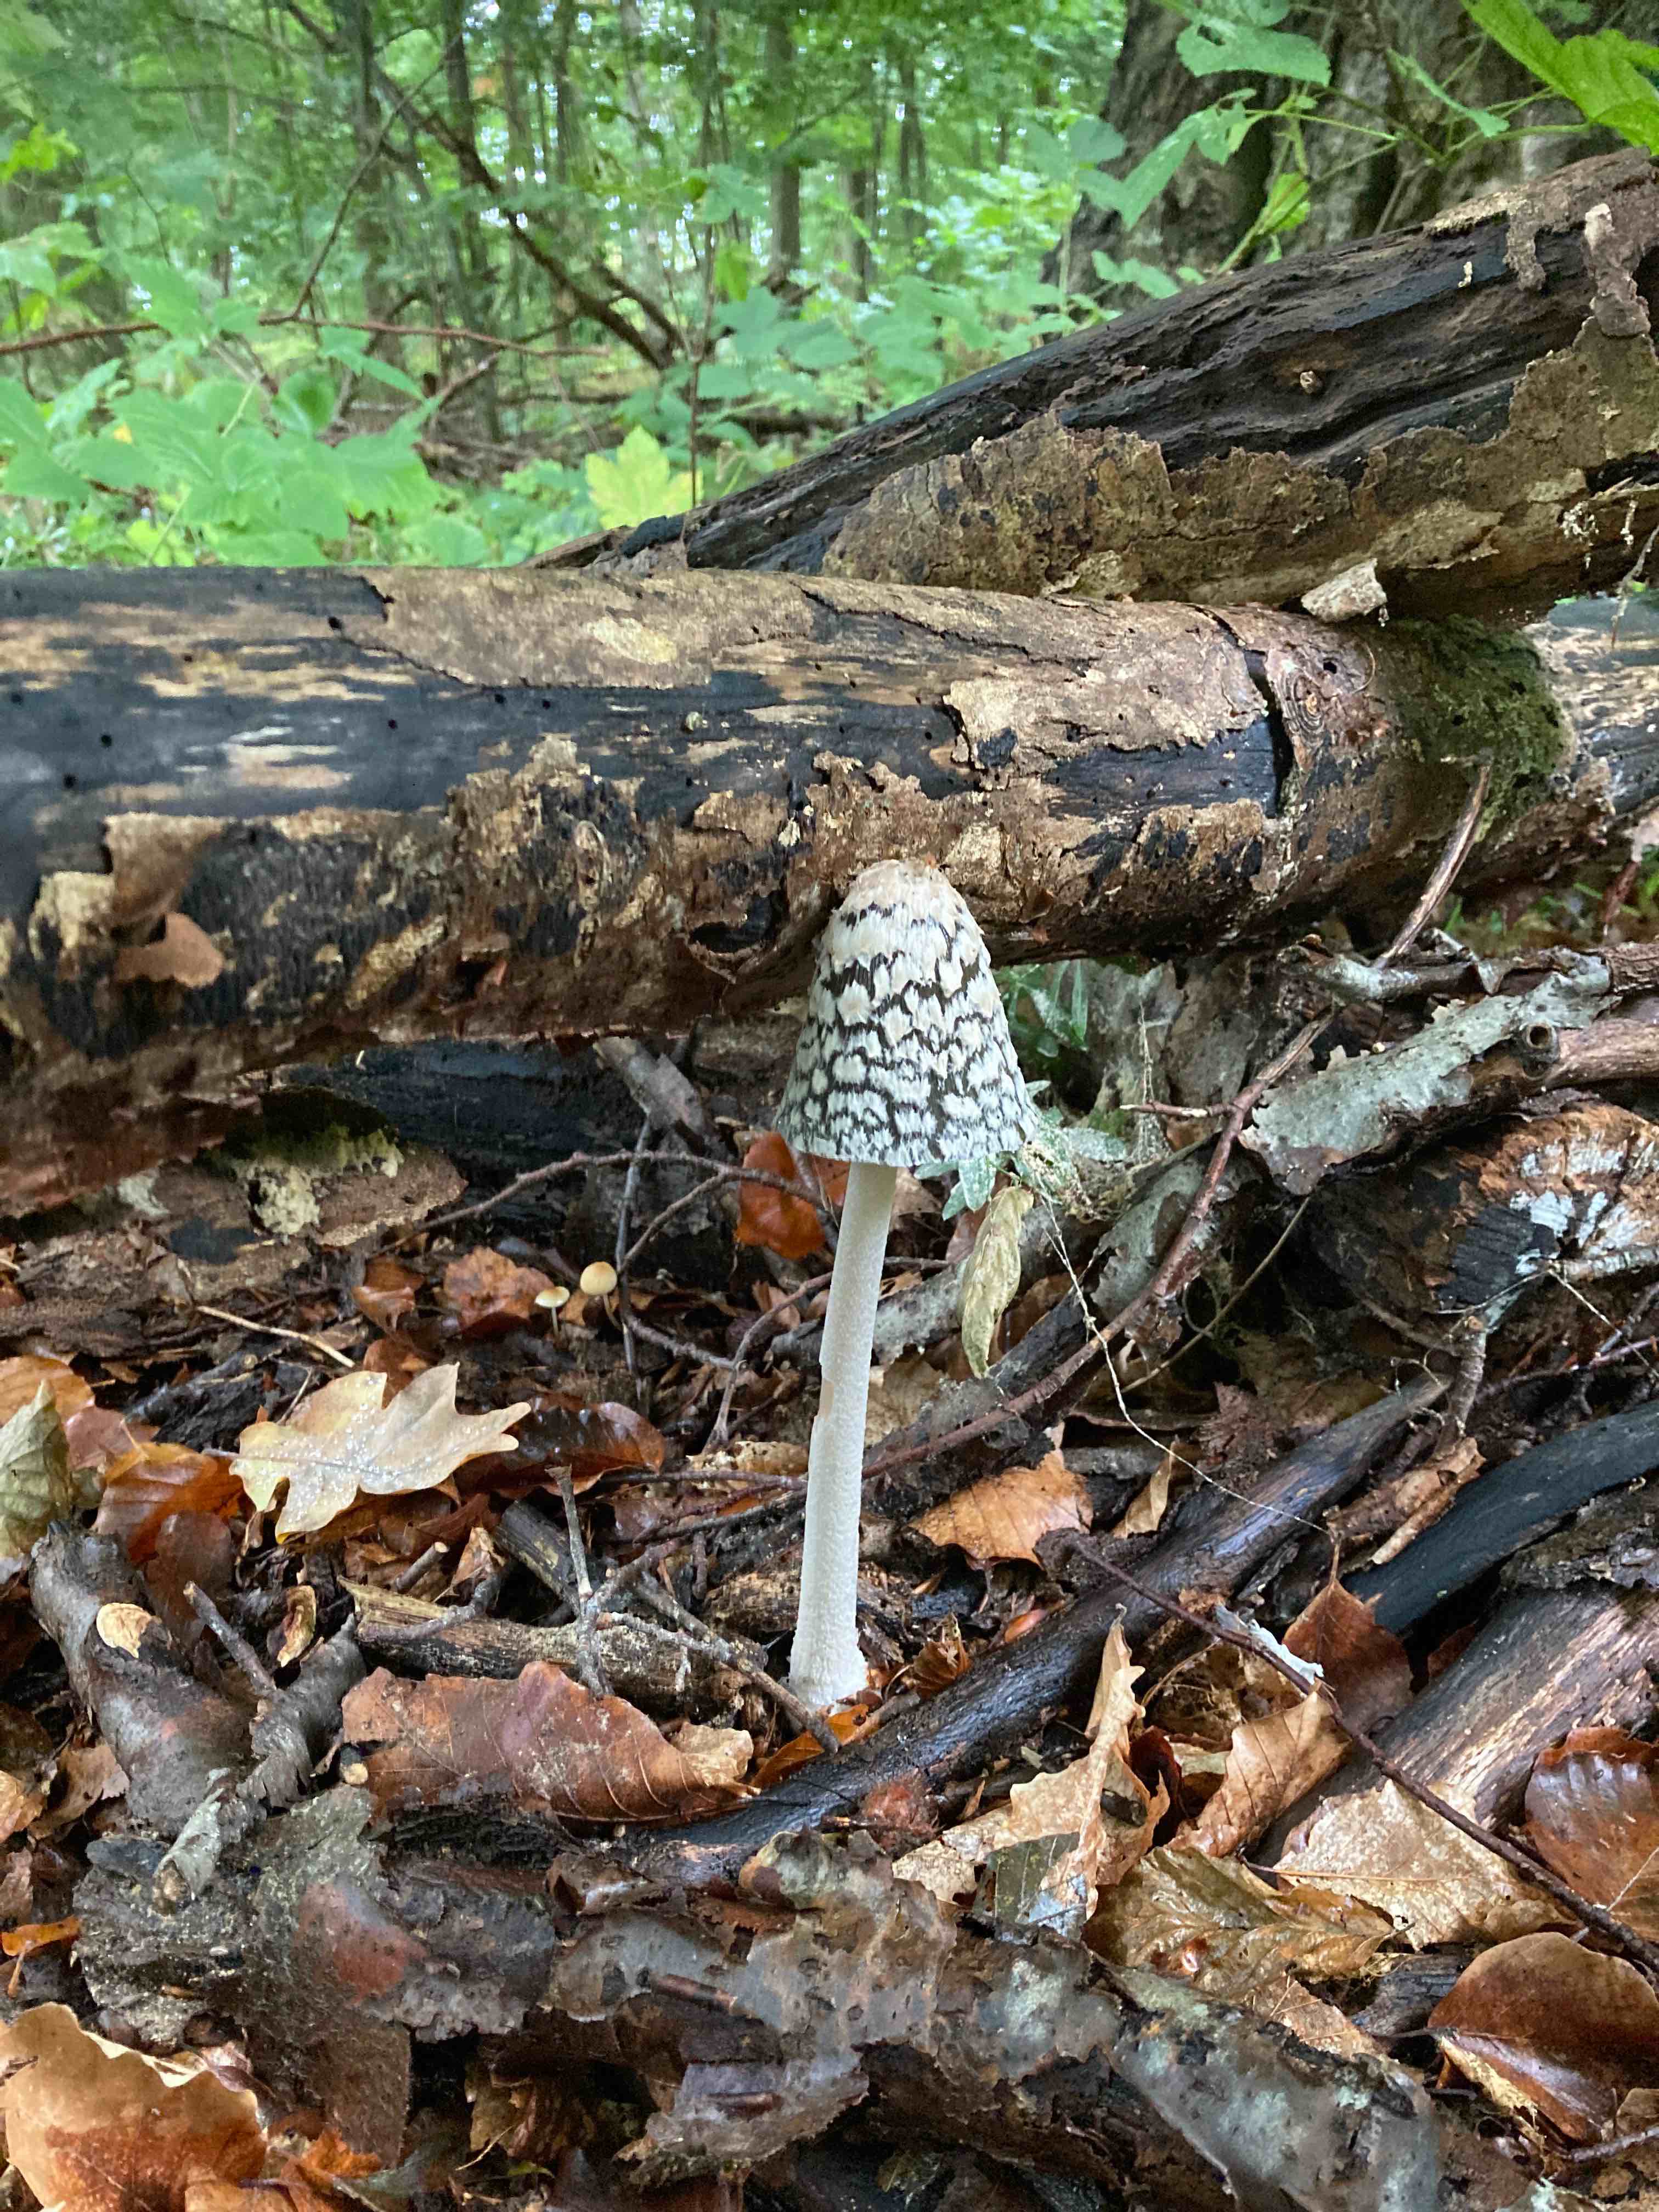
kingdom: Fungi
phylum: Basidiomycota
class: Agaricomycetes
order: Agaricales
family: Psathyrellaceae
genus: Coprinopsis
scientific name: Coprinopsis picacea
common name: skade-blækhat
